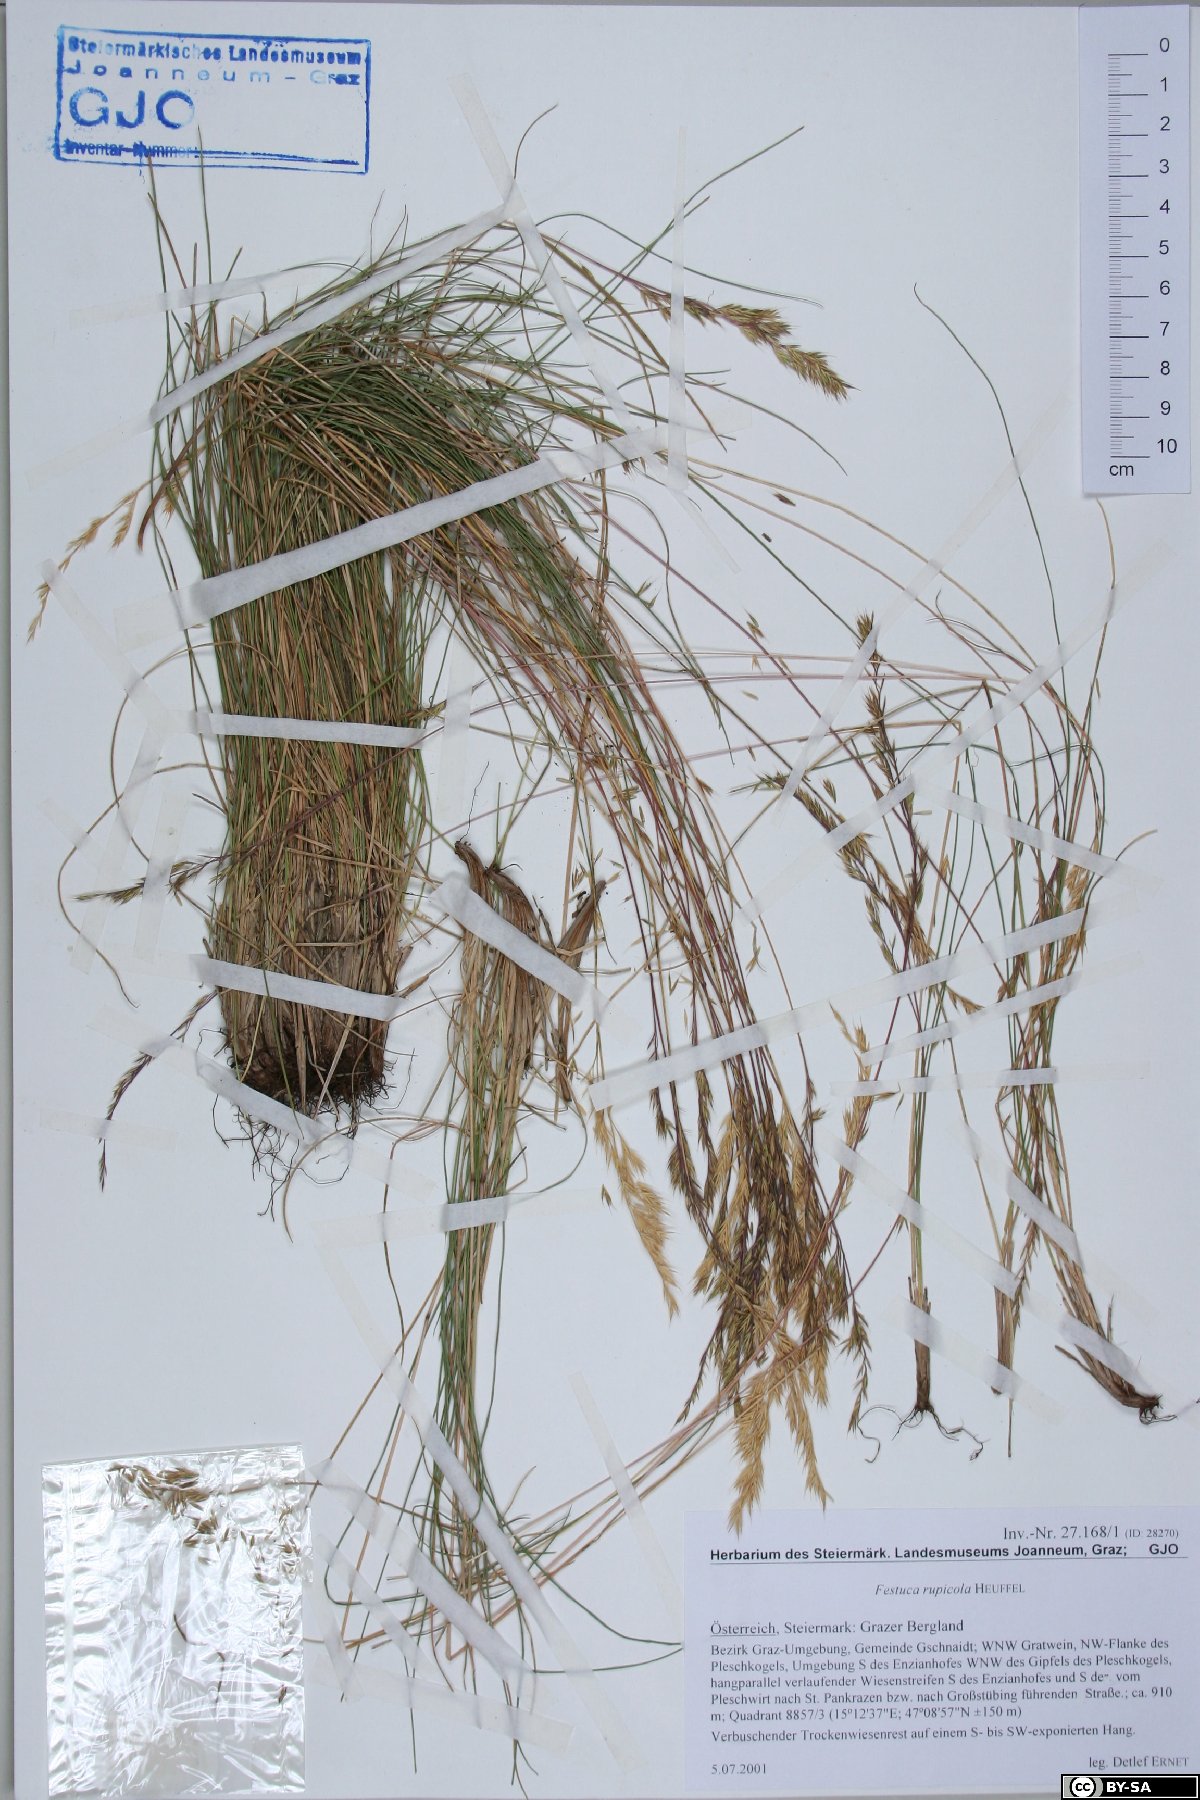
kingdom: Plantae
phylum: Tracheophyta
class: Liliopsida
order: Poales
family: Poaceae
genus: Festuca
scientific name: Festuca rupicola
